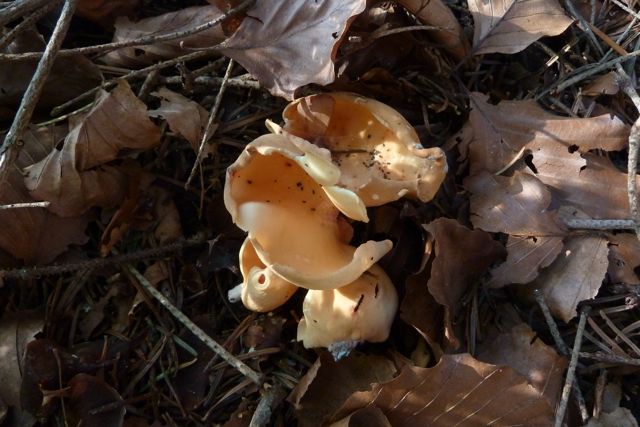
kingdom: Fungi
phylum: Ascomycota
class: Pezizomycetes
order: Pezizales
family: Otideaceae
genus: Otidea
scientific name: Otidea onotica
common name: æsel-ørebæger
